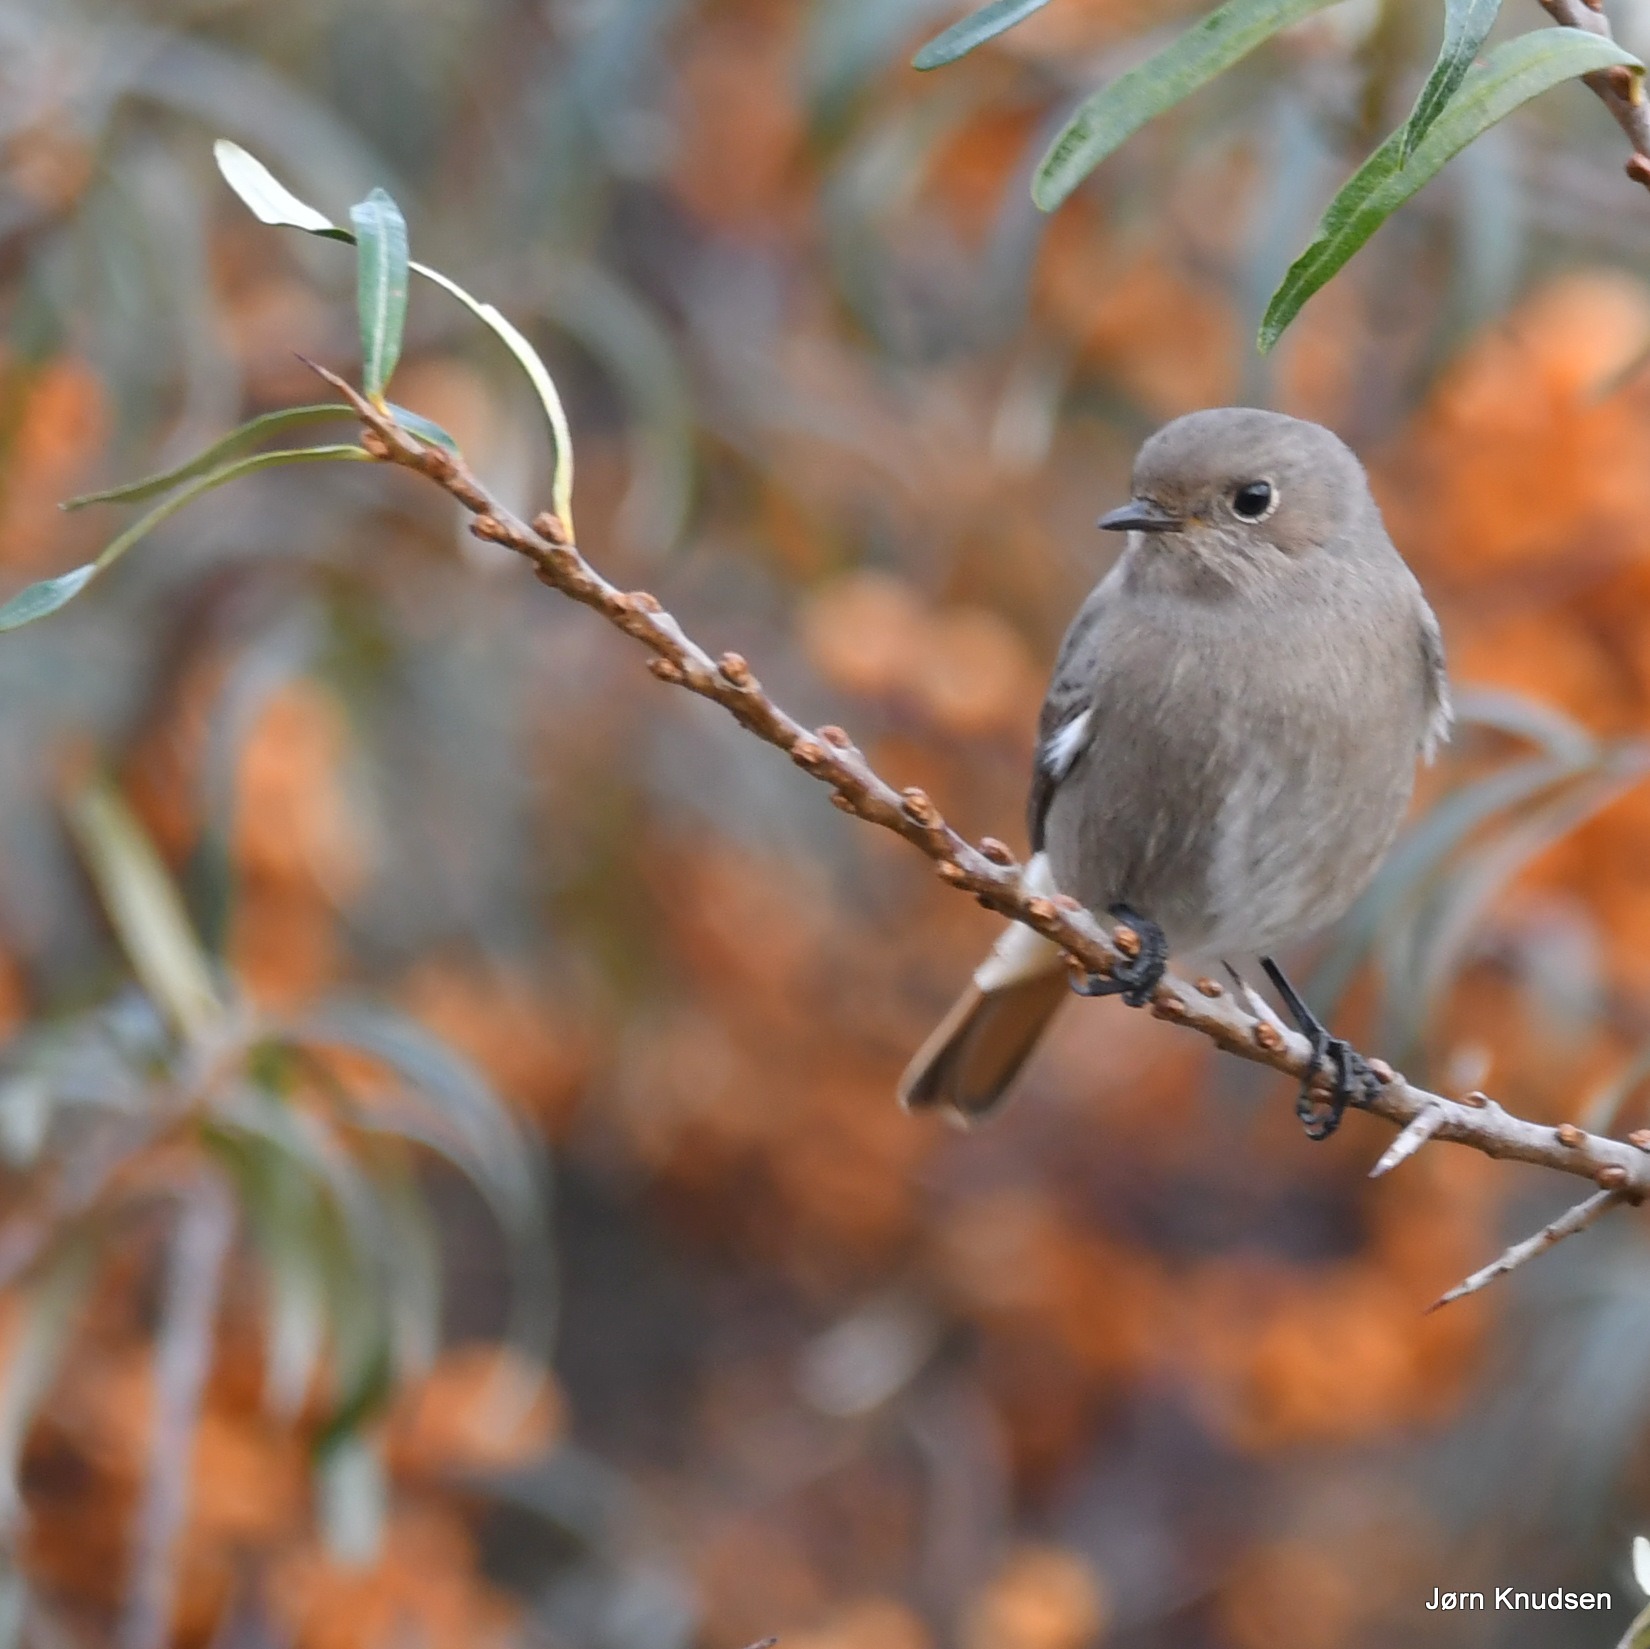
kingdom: Animalia
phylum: Chordata
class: Aves
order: Passeriformes
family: Muscicapidae
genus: Phoenicurus
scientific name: Phoenicurus ochruros
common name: Husrødstjert
